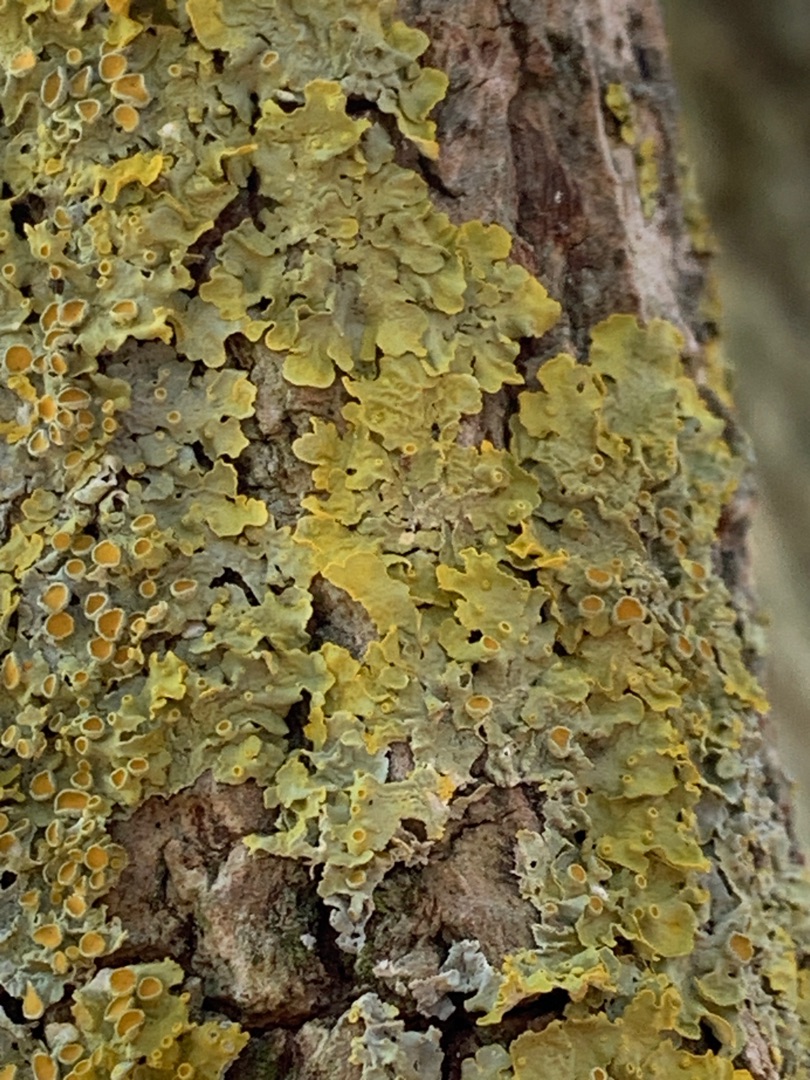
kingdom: Fungi
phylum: Ascomycota
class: Lecanoromycetes
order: Teloschistales
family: Teloschistaceae
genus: Xanthoria
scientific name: Xanthoria parietina
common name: Almindelig væggelav
